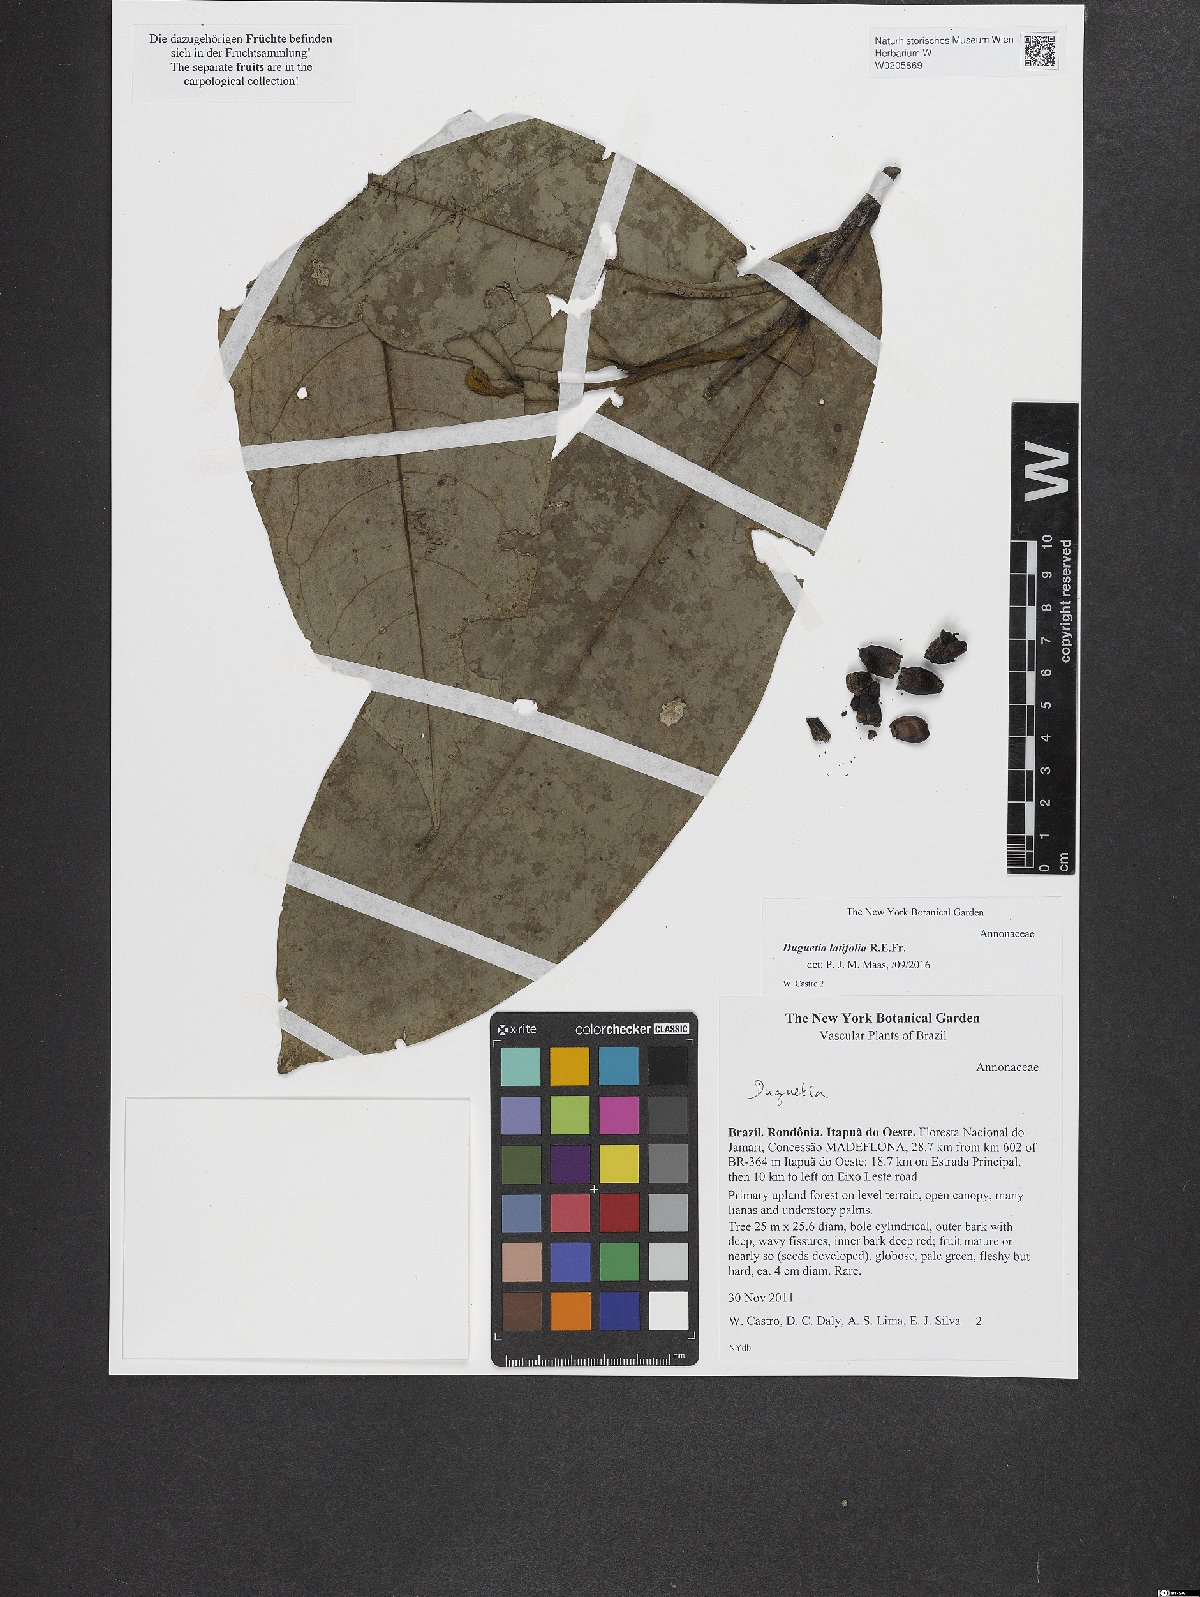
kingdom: Plantae
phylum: Tracheophyta
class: Magnoliopsida
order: Magnoliales
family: Annonaceae
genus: Duguetia
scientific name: Duguetia latifolia
